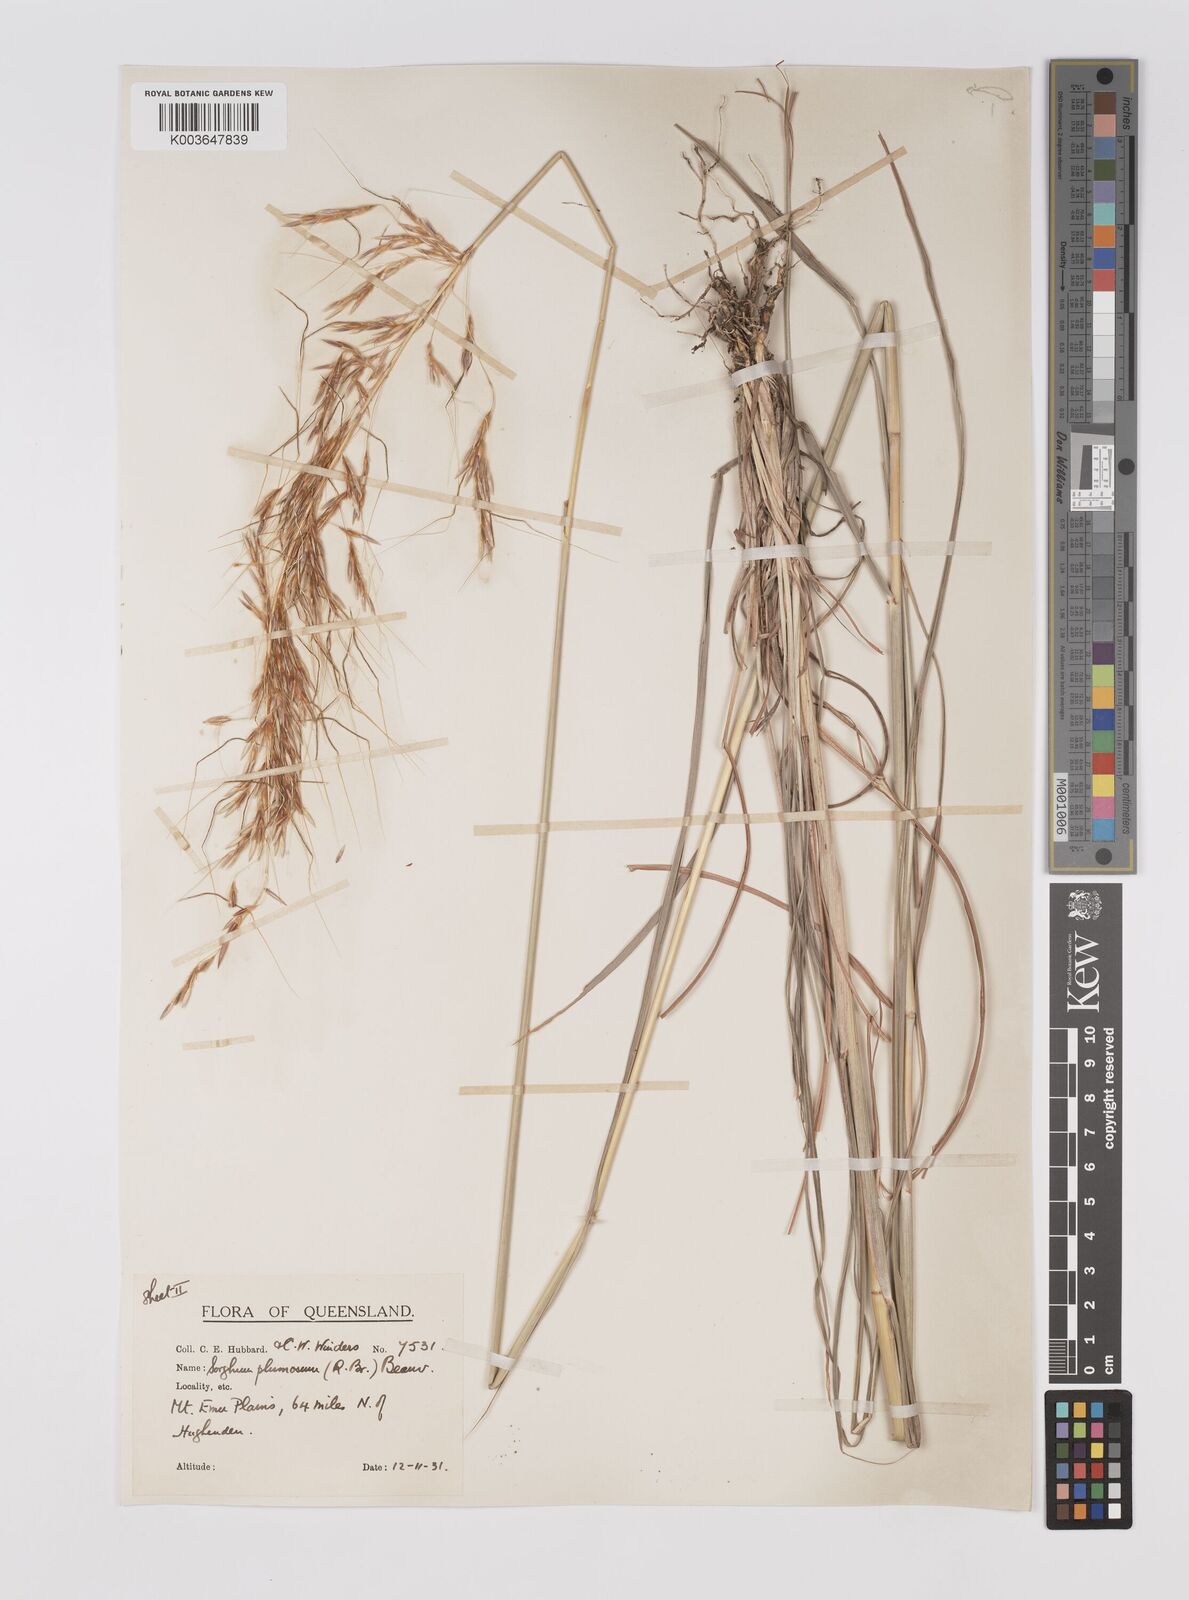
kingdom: Plantae
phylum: Tracheophyta
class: Liliopsida
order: Poales
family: Poaceae
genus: Sarga
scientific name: Sarga plumosa
